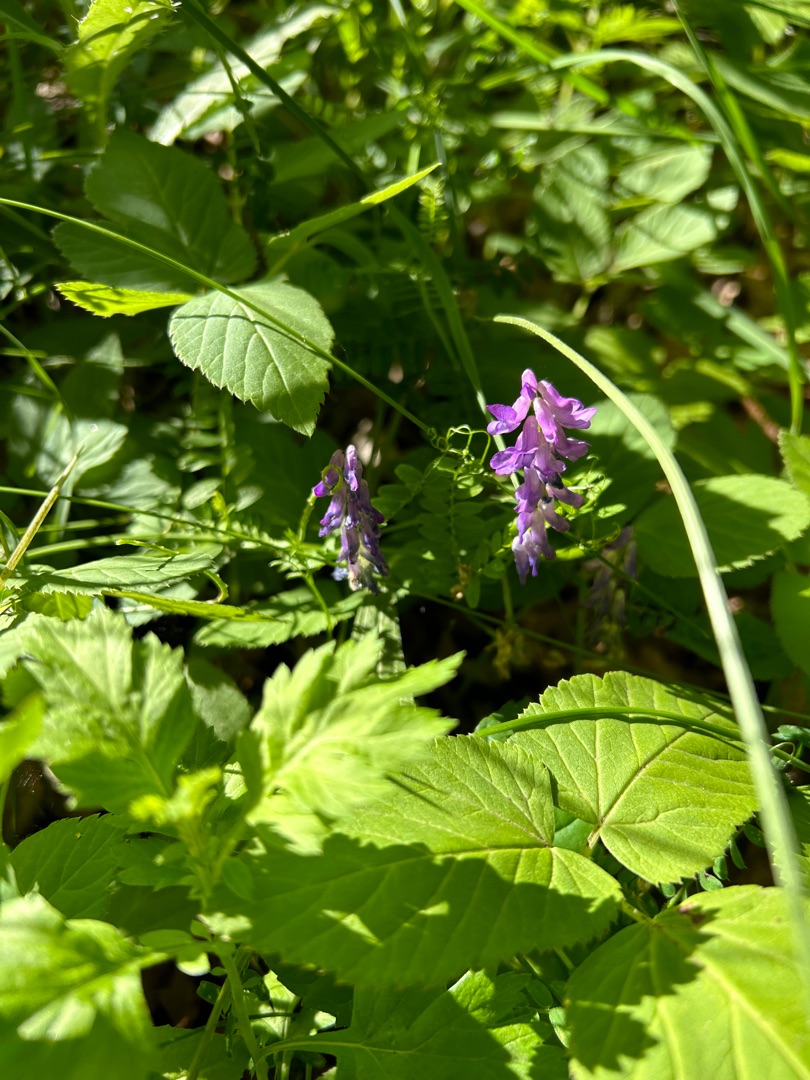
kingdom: Plantae
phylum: Tracheophyta
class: Magnoliopsida
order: Fabales
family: Fabaceae
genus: Vicia
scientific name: Vicia cracca
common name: Muse-vikke
